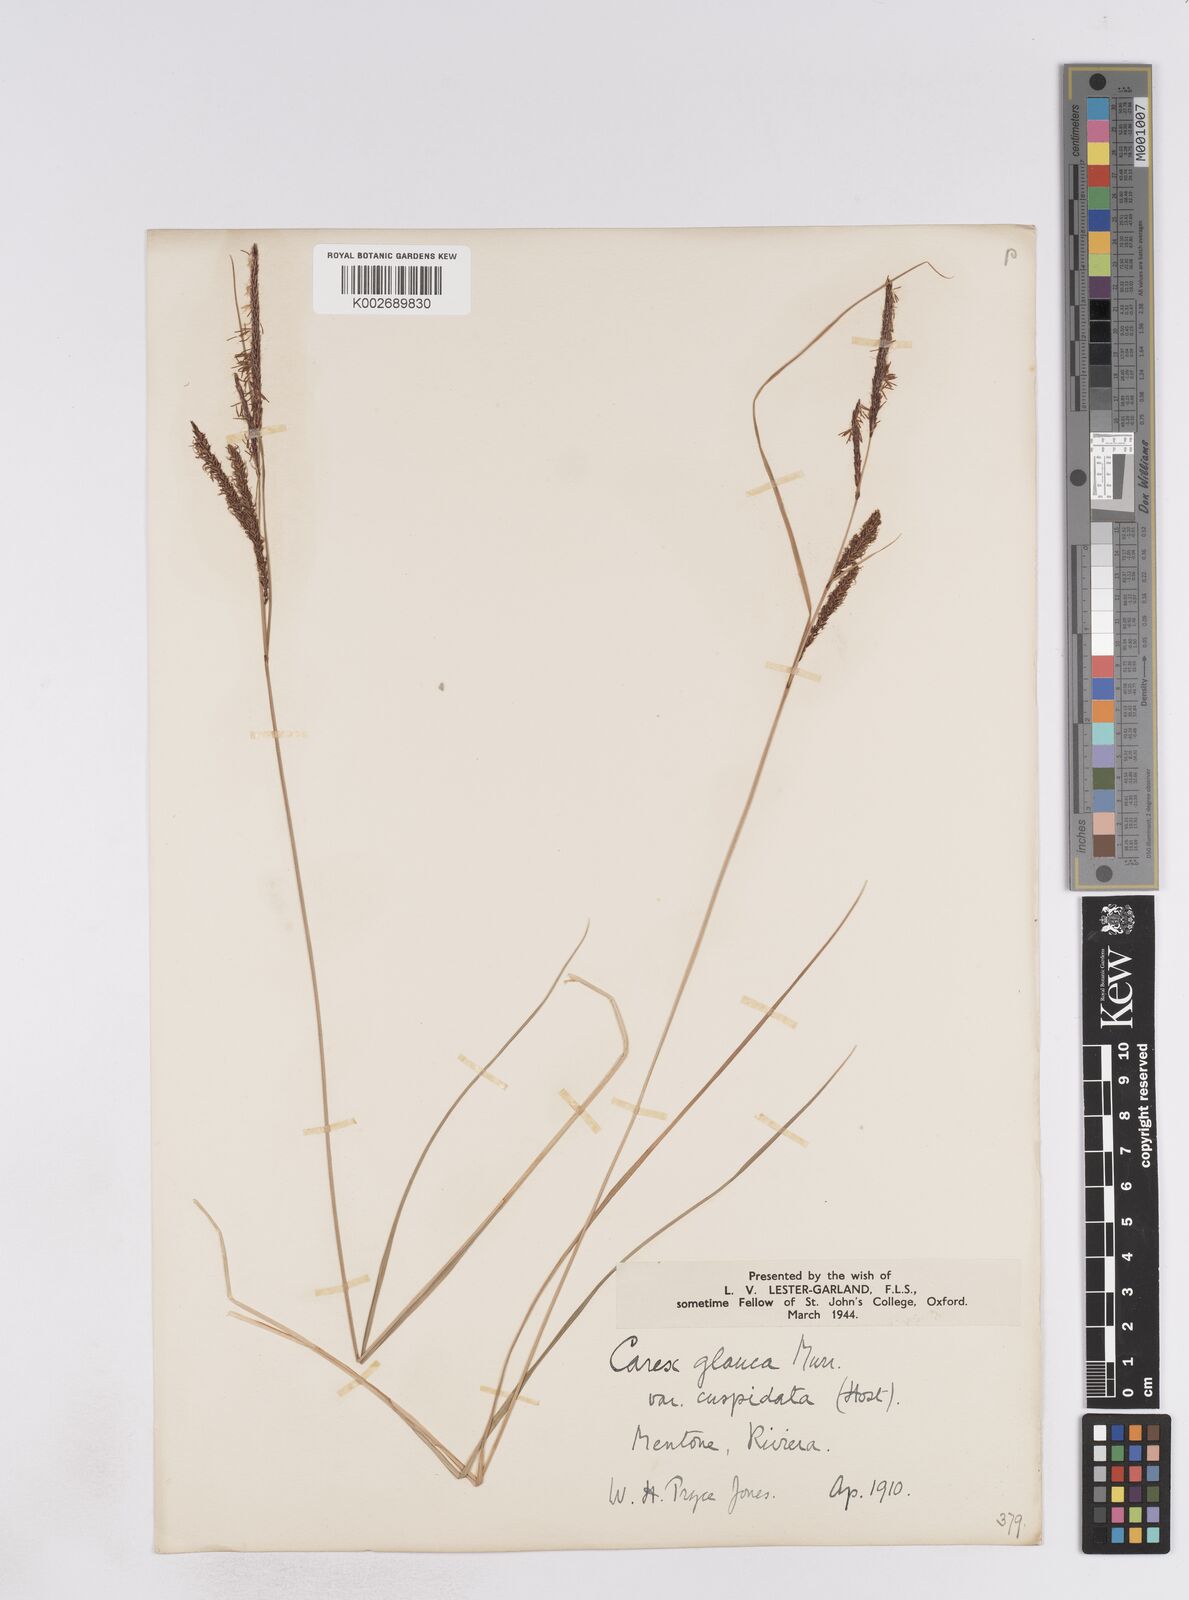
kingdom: Plantae
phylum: Tracheophyta
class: Liliopsida
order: Poales
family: Cyperaceae
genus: Carex
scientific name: Carex flacca
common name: Glaucous sedge
